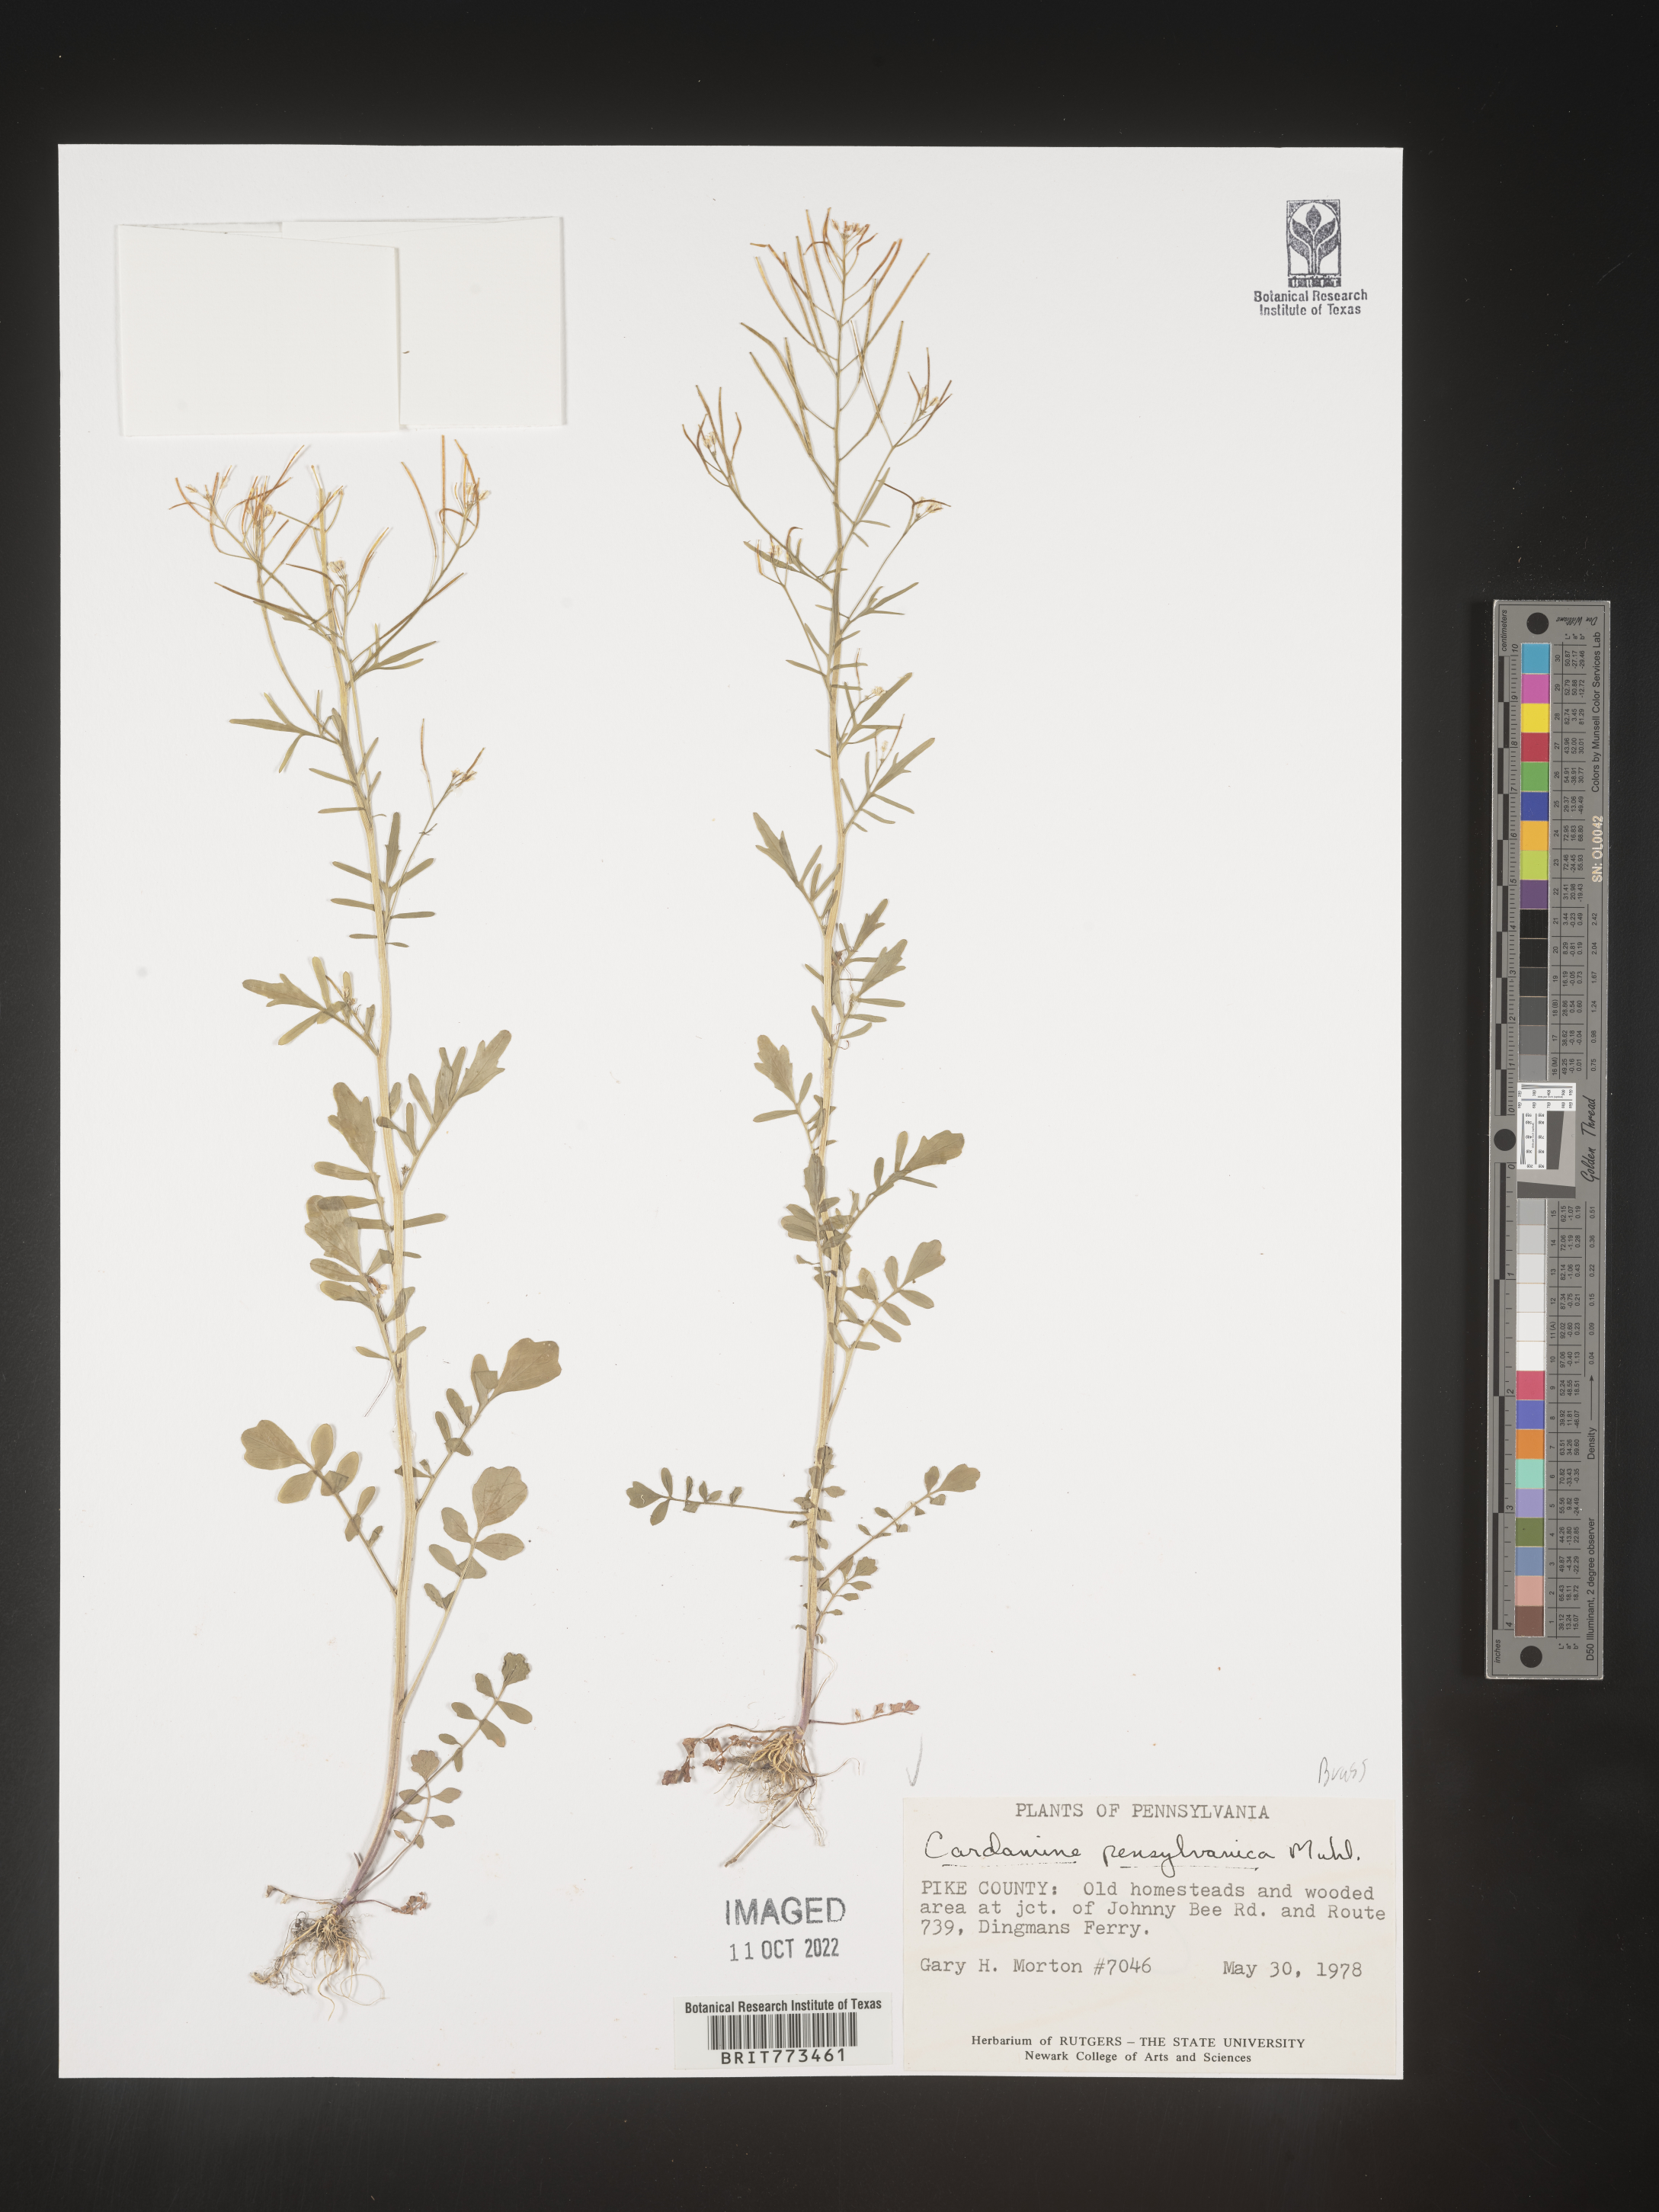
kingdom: Plantae
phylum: Tracheophyta
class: Magnoliopsida
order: Brassicales
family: Brassicaceae
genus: Cardamine
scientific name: Cardamine pensylvanica
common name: Pennsylvania bittercress
